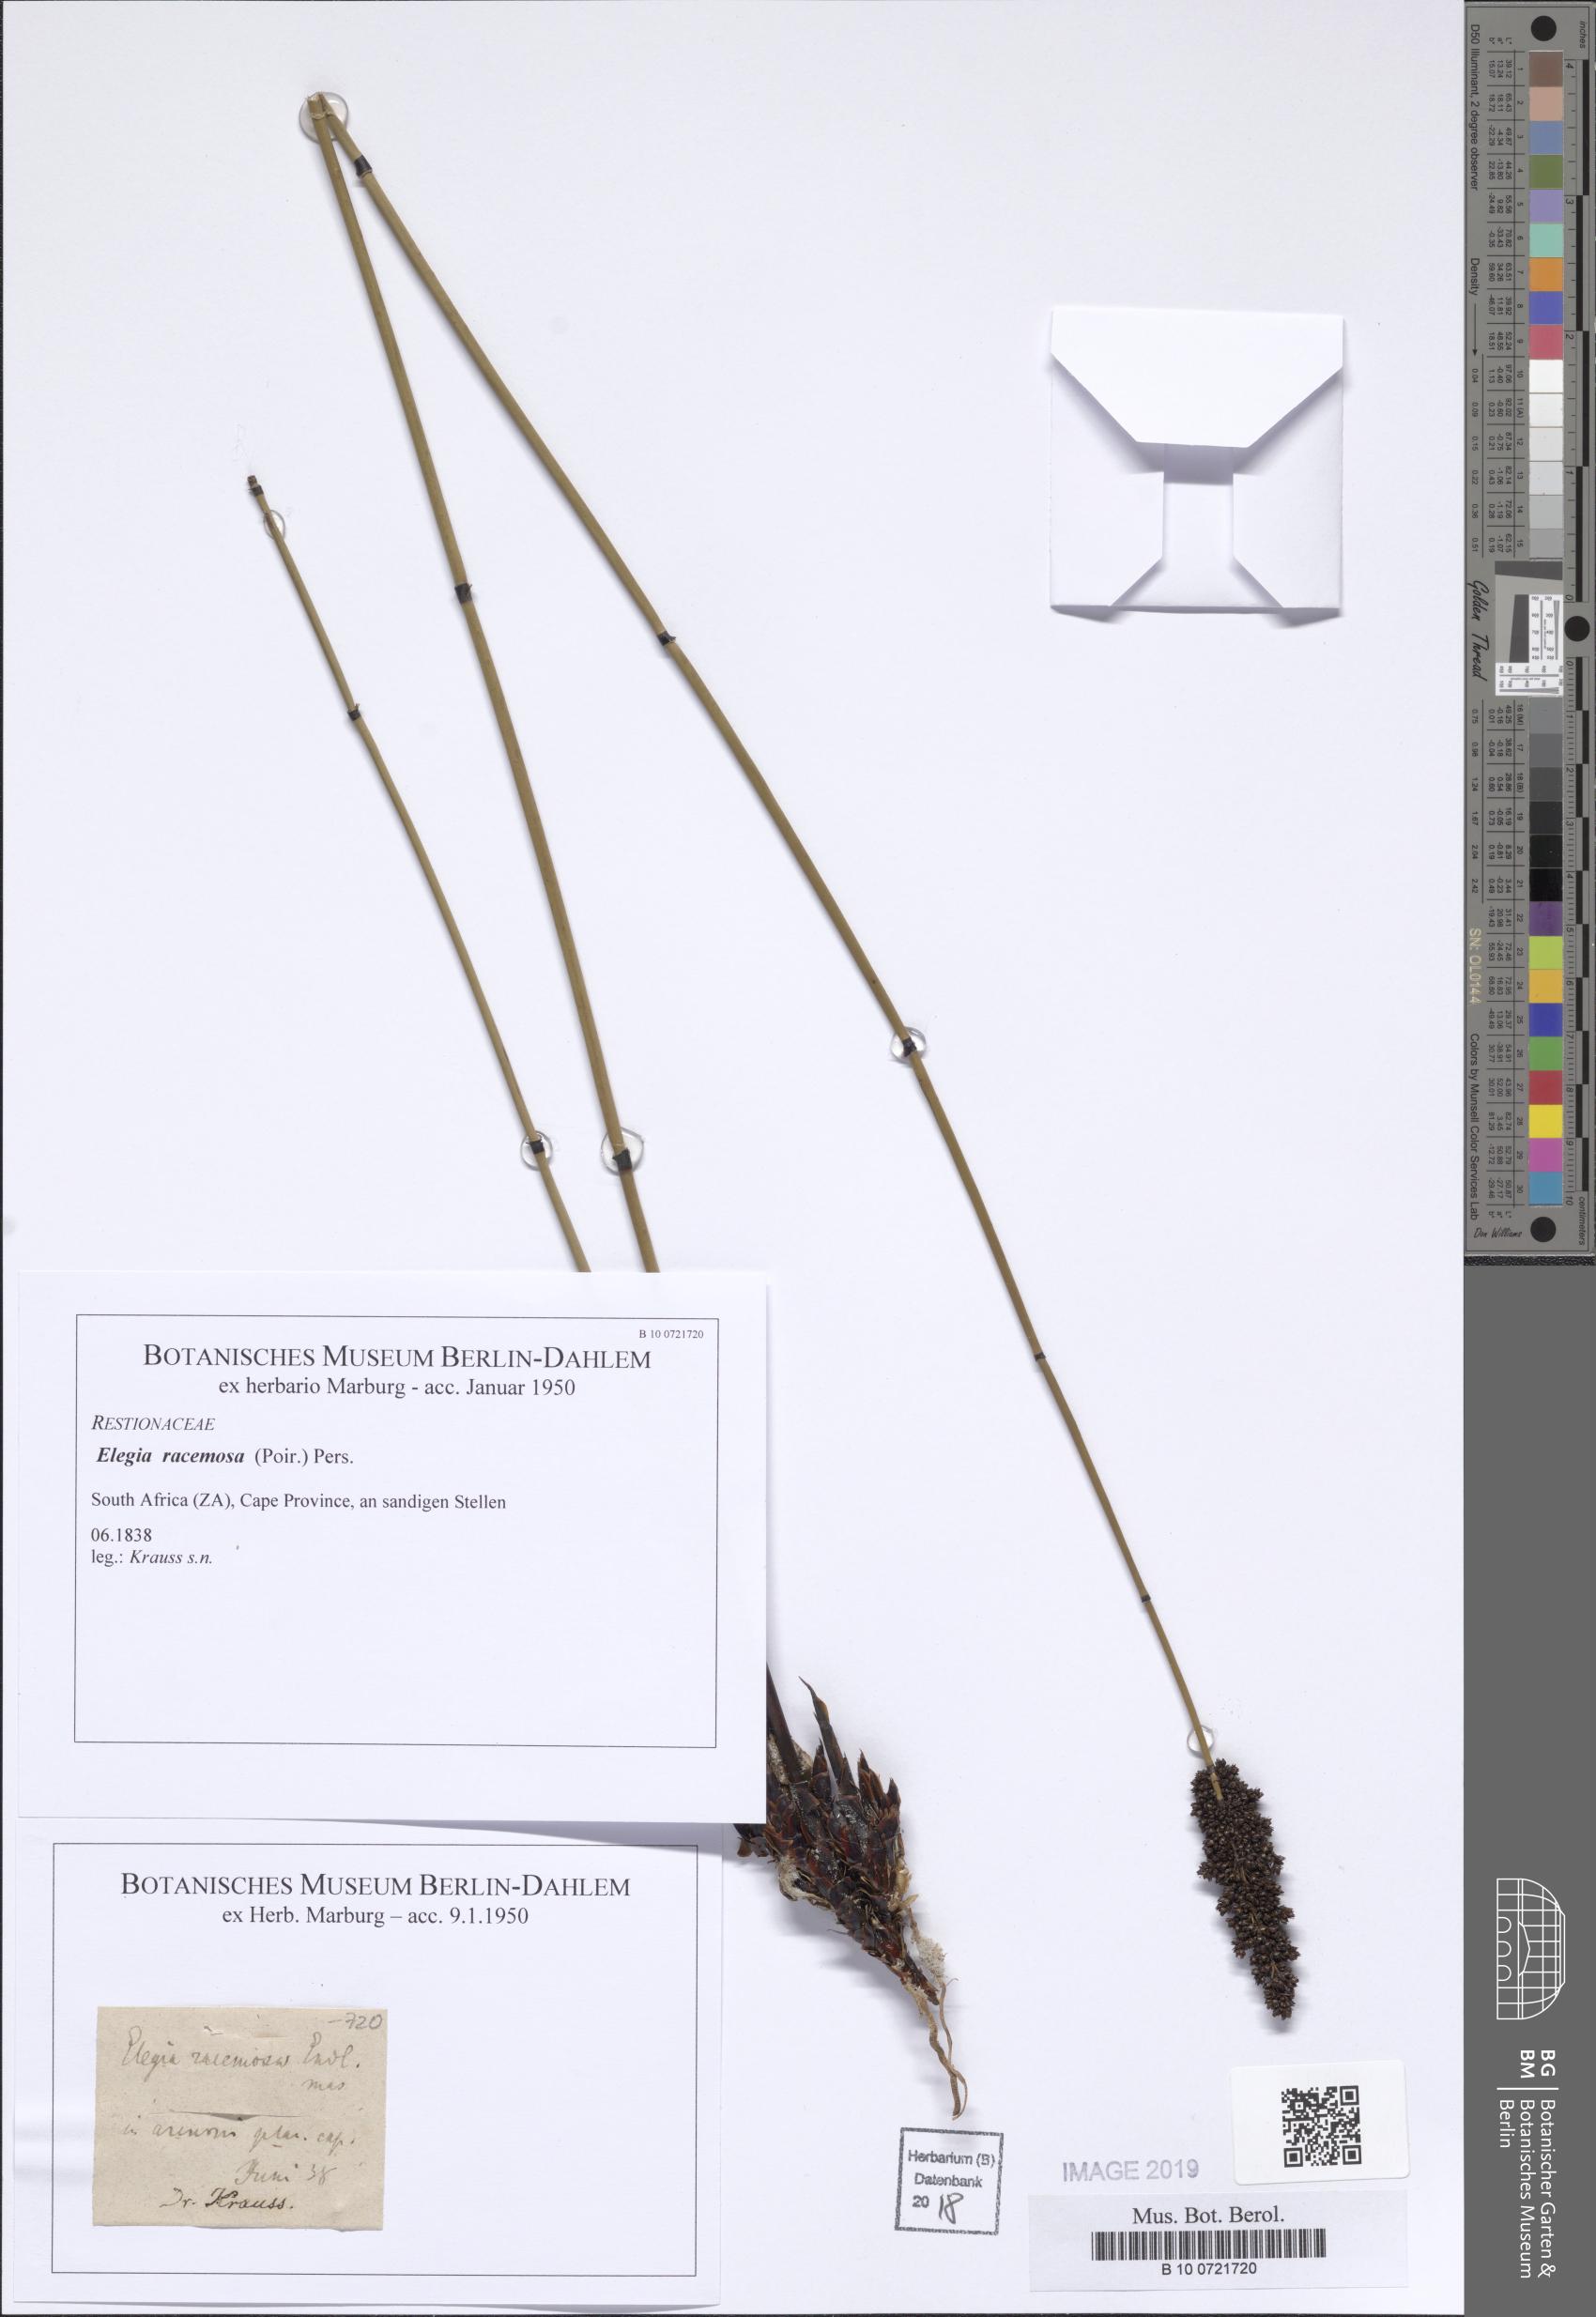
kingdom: Plantae
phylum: Tracheophyta
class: Liliopsida
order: Poales
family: Restionaceae
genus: Elegia
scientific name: Elegia racemosa
